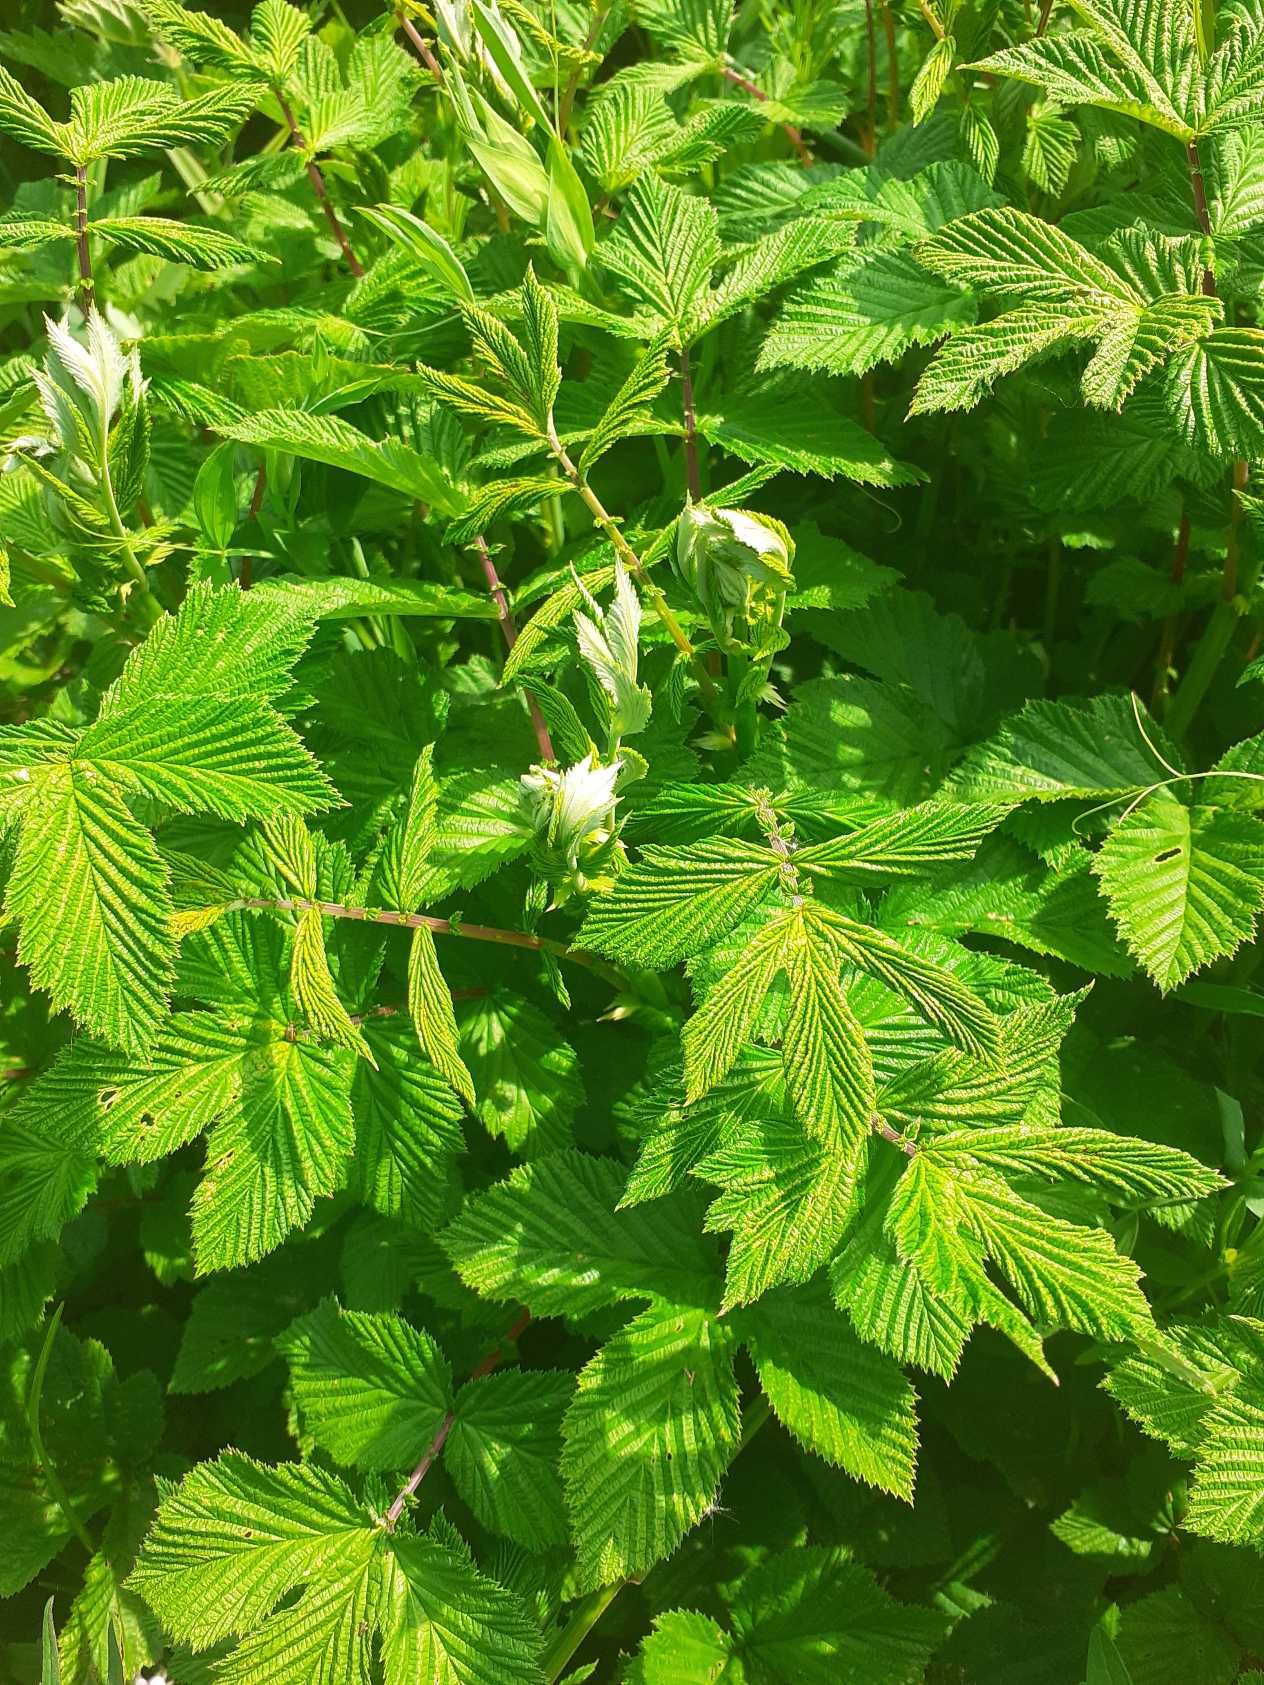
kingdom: Plantae
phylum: Tracheophyta
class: Magnoliopsida
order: Rosales
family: Rosaceae
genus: Filipendula
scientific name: Filipendula ulmaria
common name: Almindelig mjødurt
